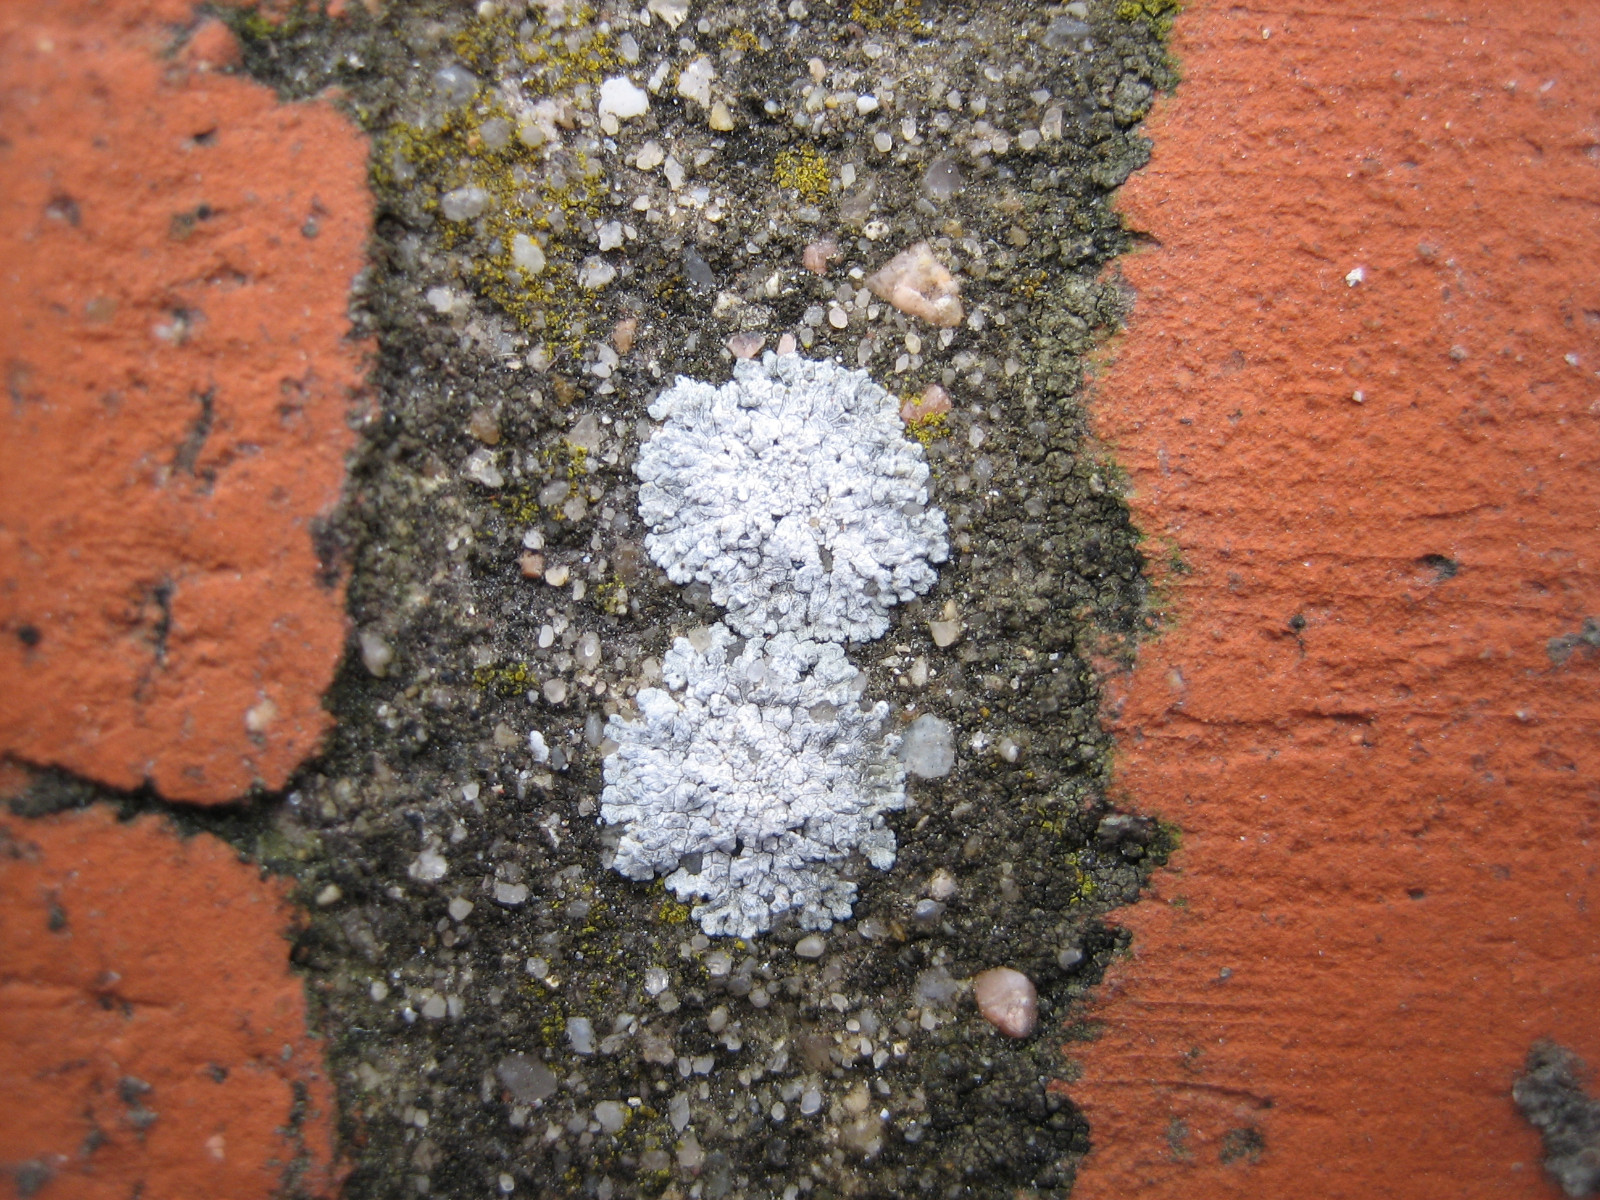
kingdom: Fungi
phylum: Ascomycota
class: Lecanoromycetes
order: Teloschistales
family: Teloschistaceae
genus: Kuettlingeria
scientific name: Kuettlingeria teicholyta
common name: grå orangelav
